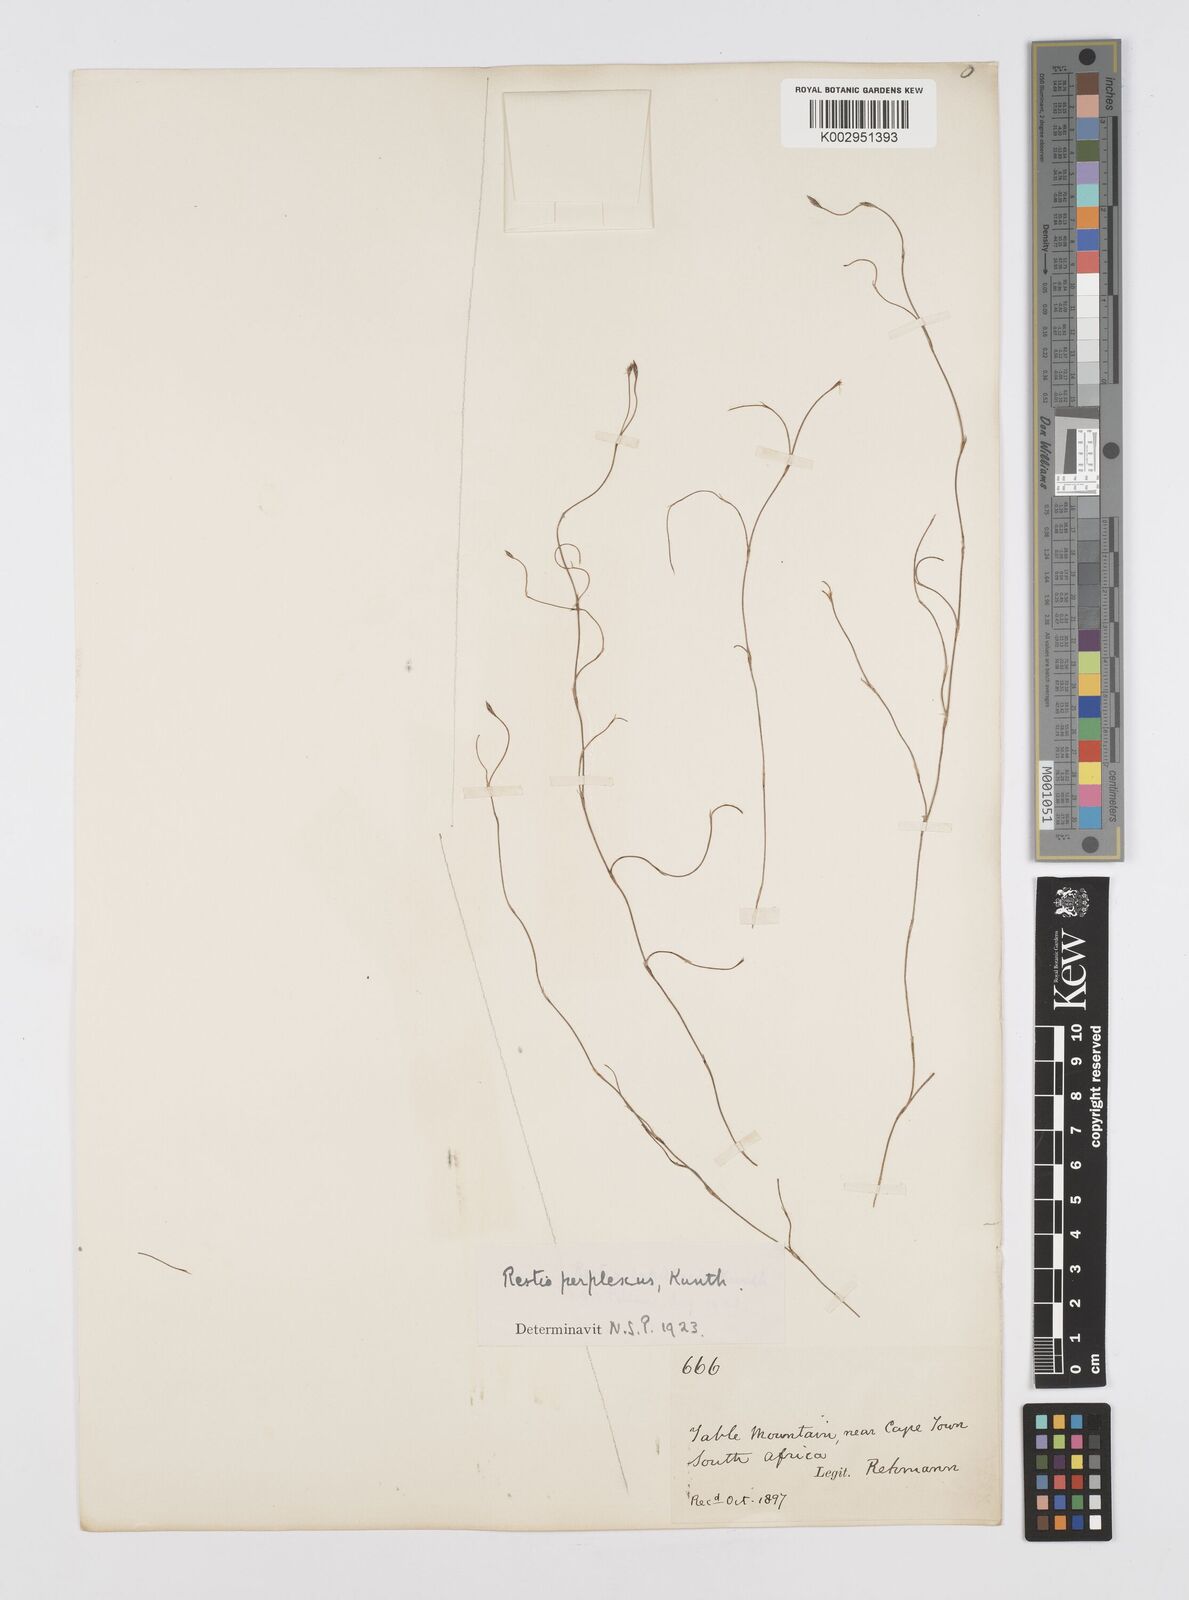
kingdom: Plantae
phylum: Tracheophyta
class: Liliopsida
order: Poales
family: Restionaceae
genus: Restio
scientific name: Restio perplexus
